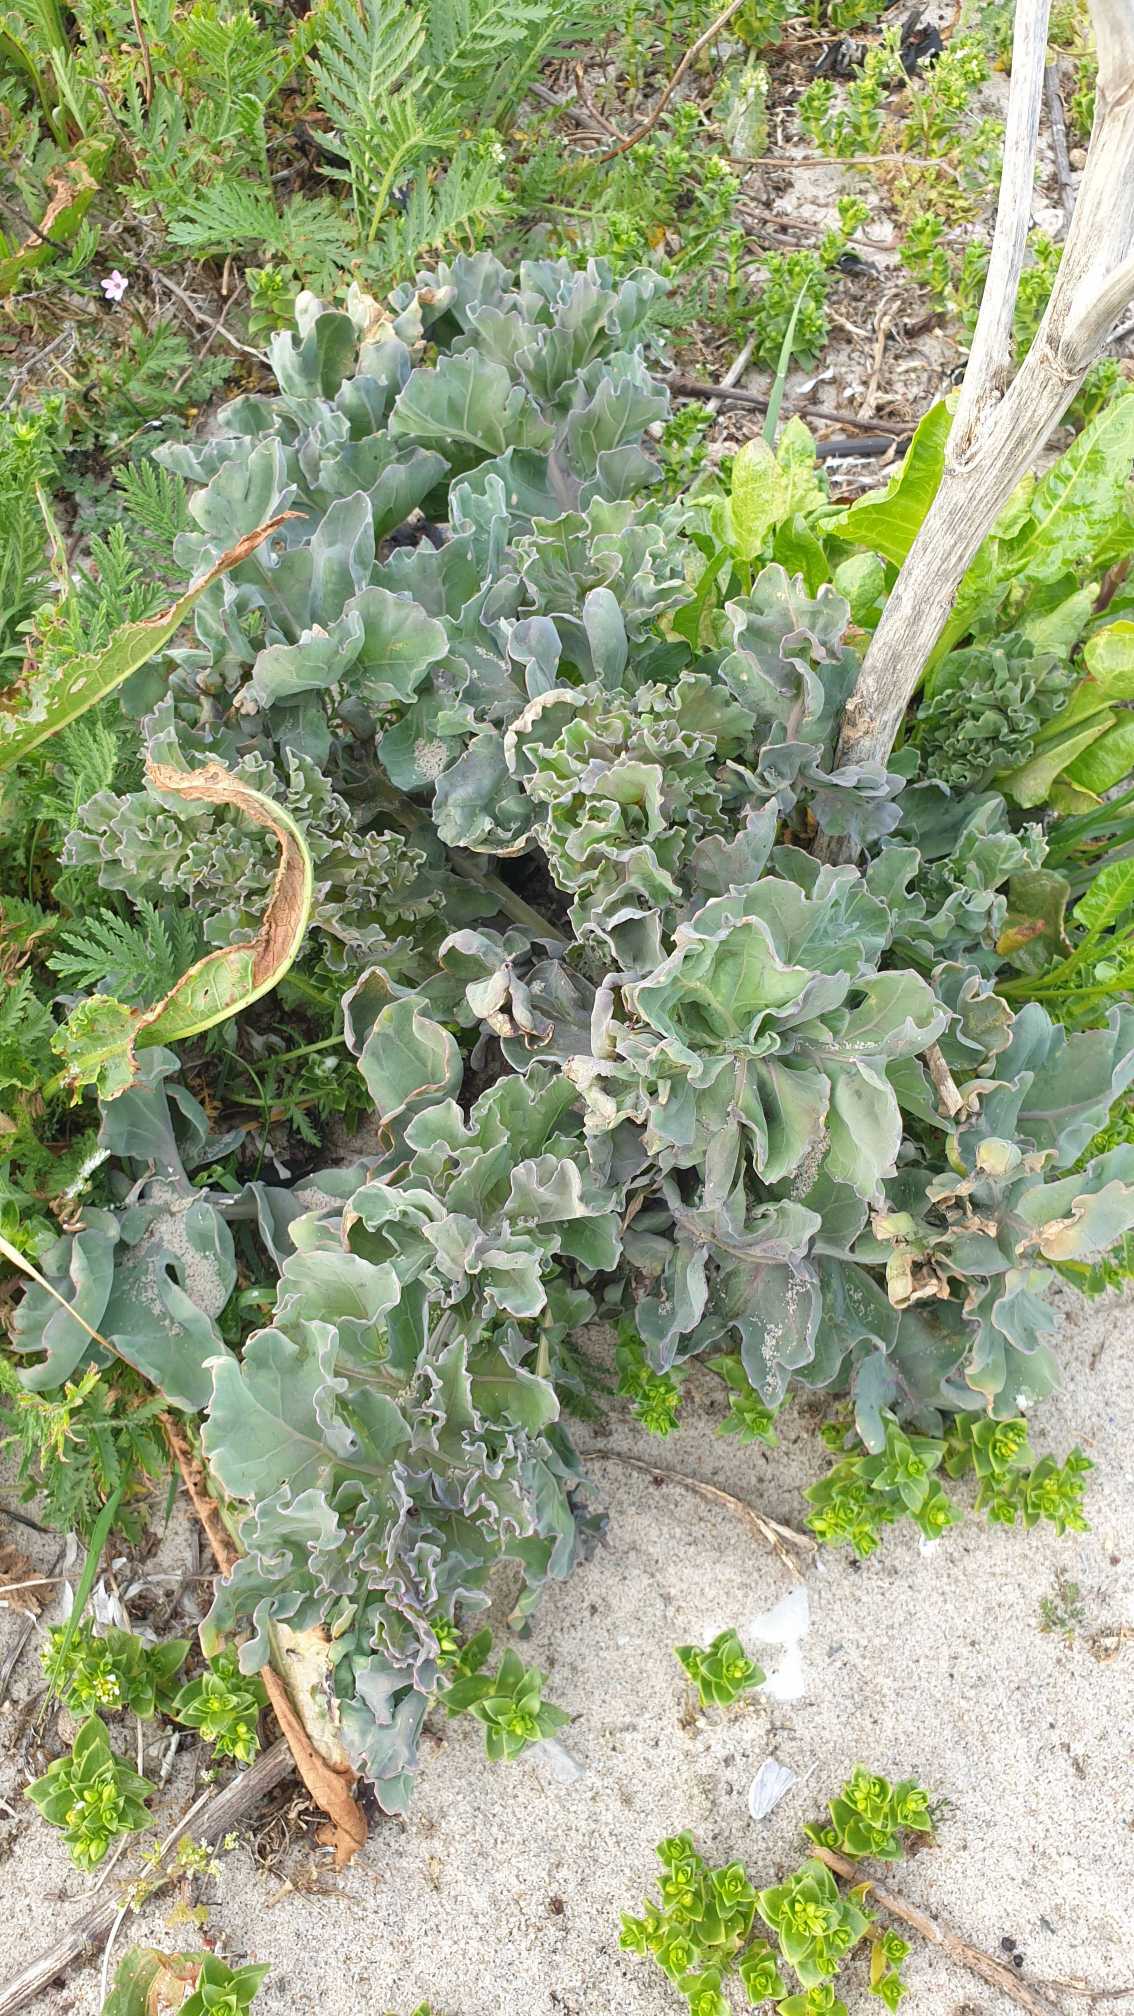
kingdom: Plantae
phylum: Tracheophyta
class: Magnoliopsida
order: Brassicales
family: Brassicaceae
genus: Crambe
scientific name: Crambe maritima
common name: Strandkål
